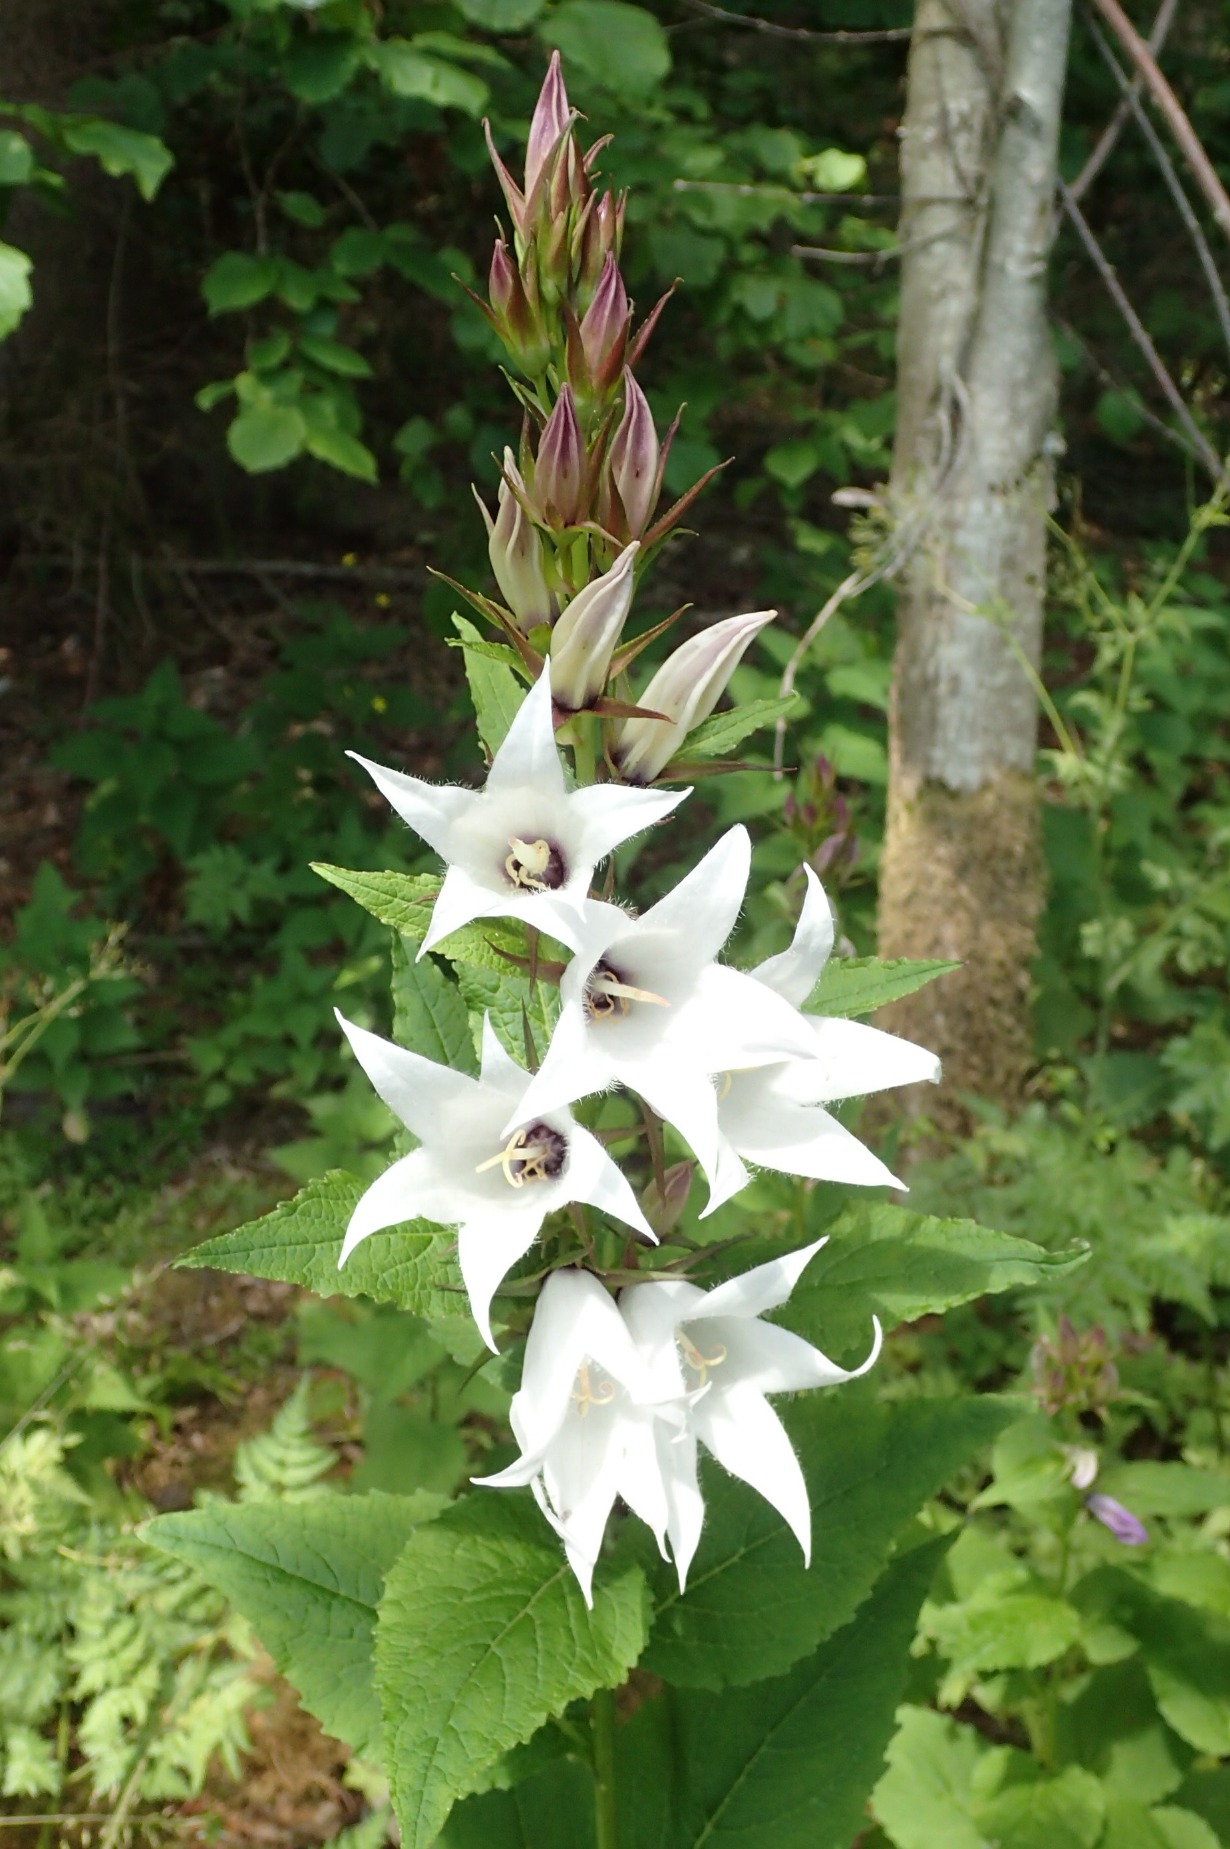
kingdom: Plantae
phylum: Tracheophyta
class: Magnoliopsida
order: Asterales
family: Campanulaceae
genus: Campanula
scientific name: Campanula latifolia
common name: Bredbladet klokke
